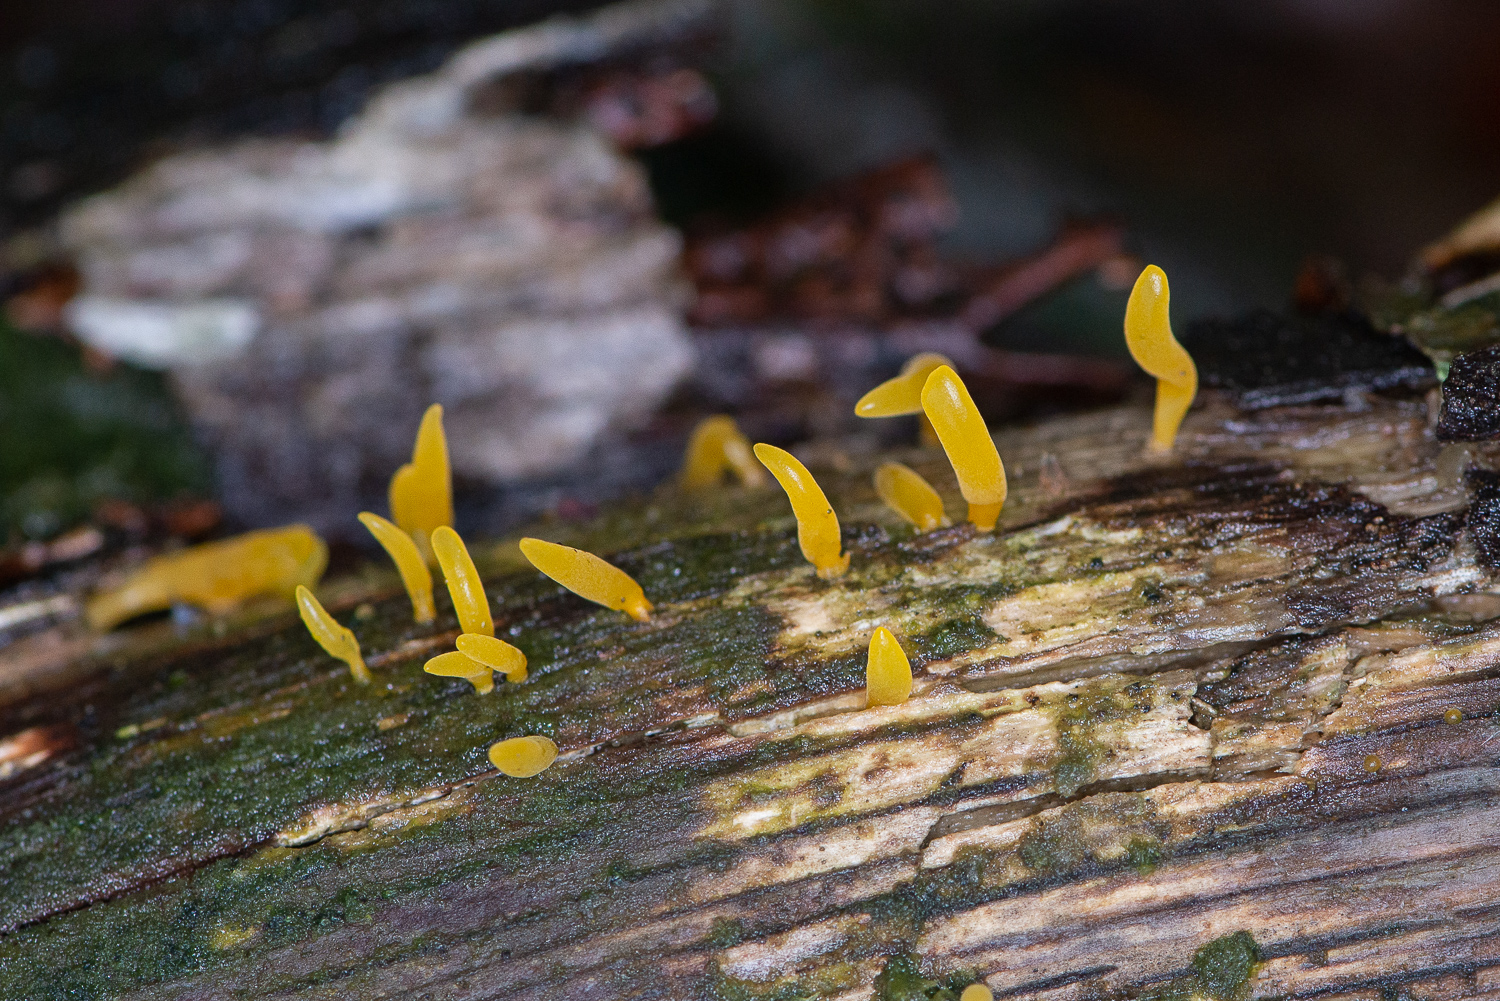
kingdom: Fungi
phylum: Basidiomycota
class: Dacrymycetes
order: Dacrymycetales
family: Dacrymycetaceae
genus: Calocera
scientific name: Calocera cornea
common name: liden guldgaffel
